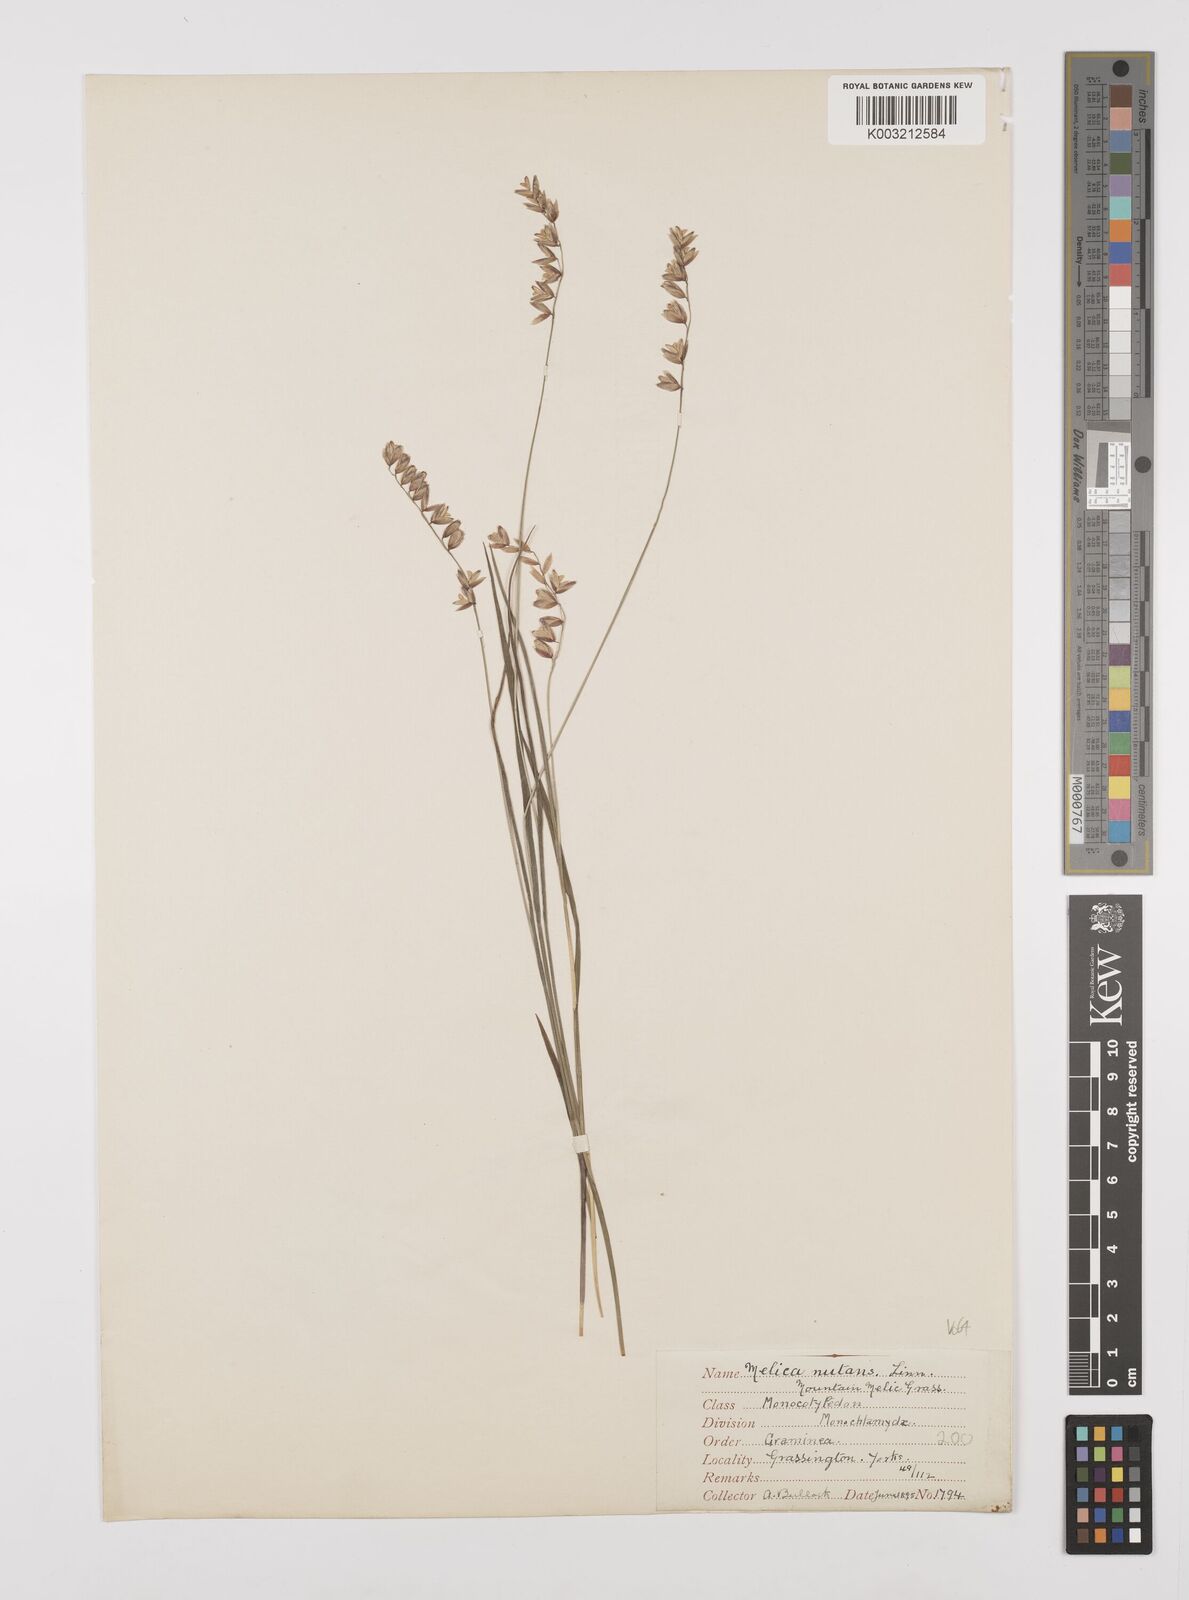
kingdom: Plantae
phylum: Tracheophyta
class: Liliopsida
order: Poales
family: Poaceae
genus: Melica
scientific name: Melica
